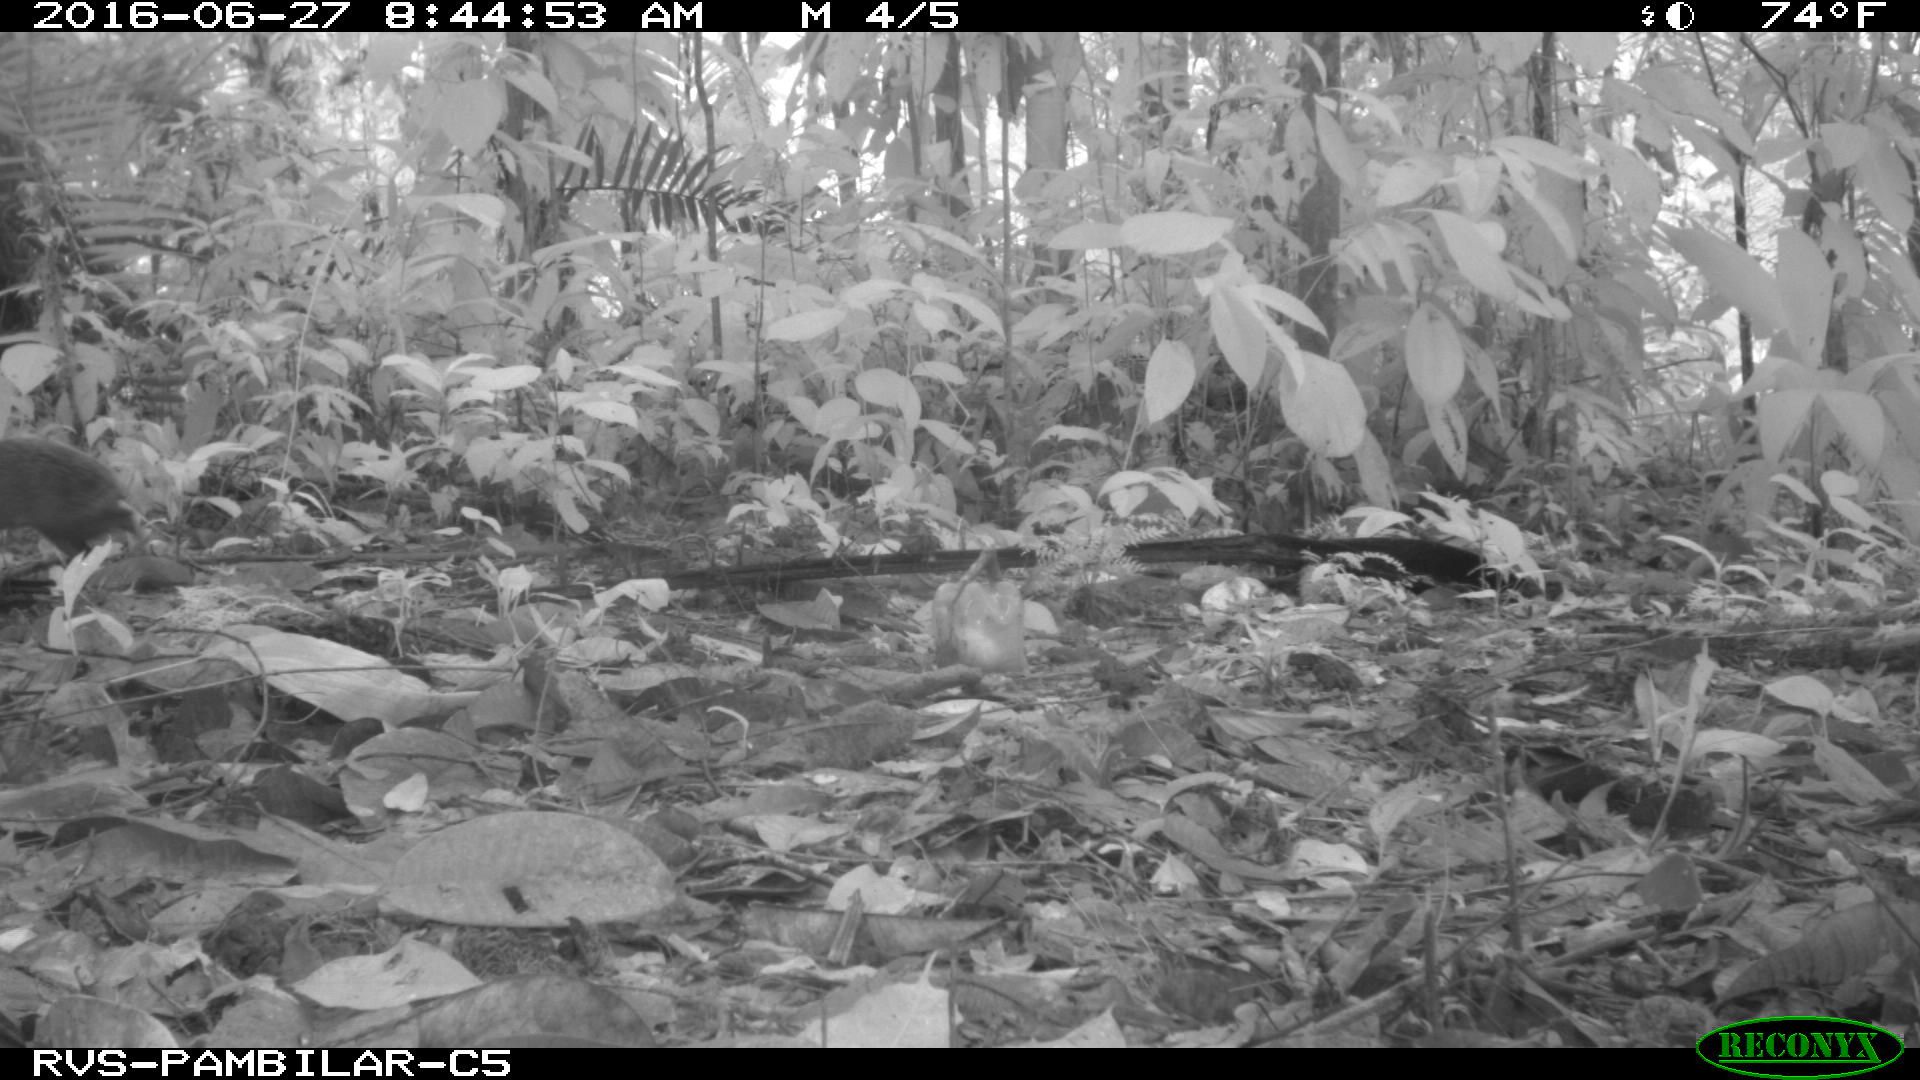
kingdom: Animalia
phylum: Chordata
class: Mammalia
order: Rodentia
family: Dasyproctidae
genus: Dasyprocta
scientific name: Dasyprocta punctata
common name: Central american agouti
